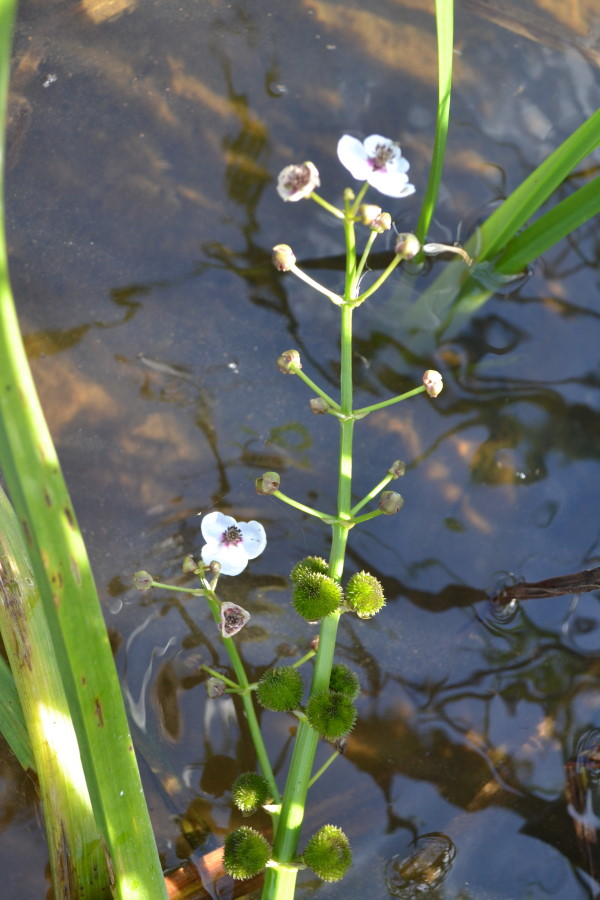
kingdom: Plantae
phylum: Tracheophyta
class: Liliopsida
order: Alismatales
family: Alismataceae
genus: Sagittaria
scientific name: Sagittaria sagittifolia
